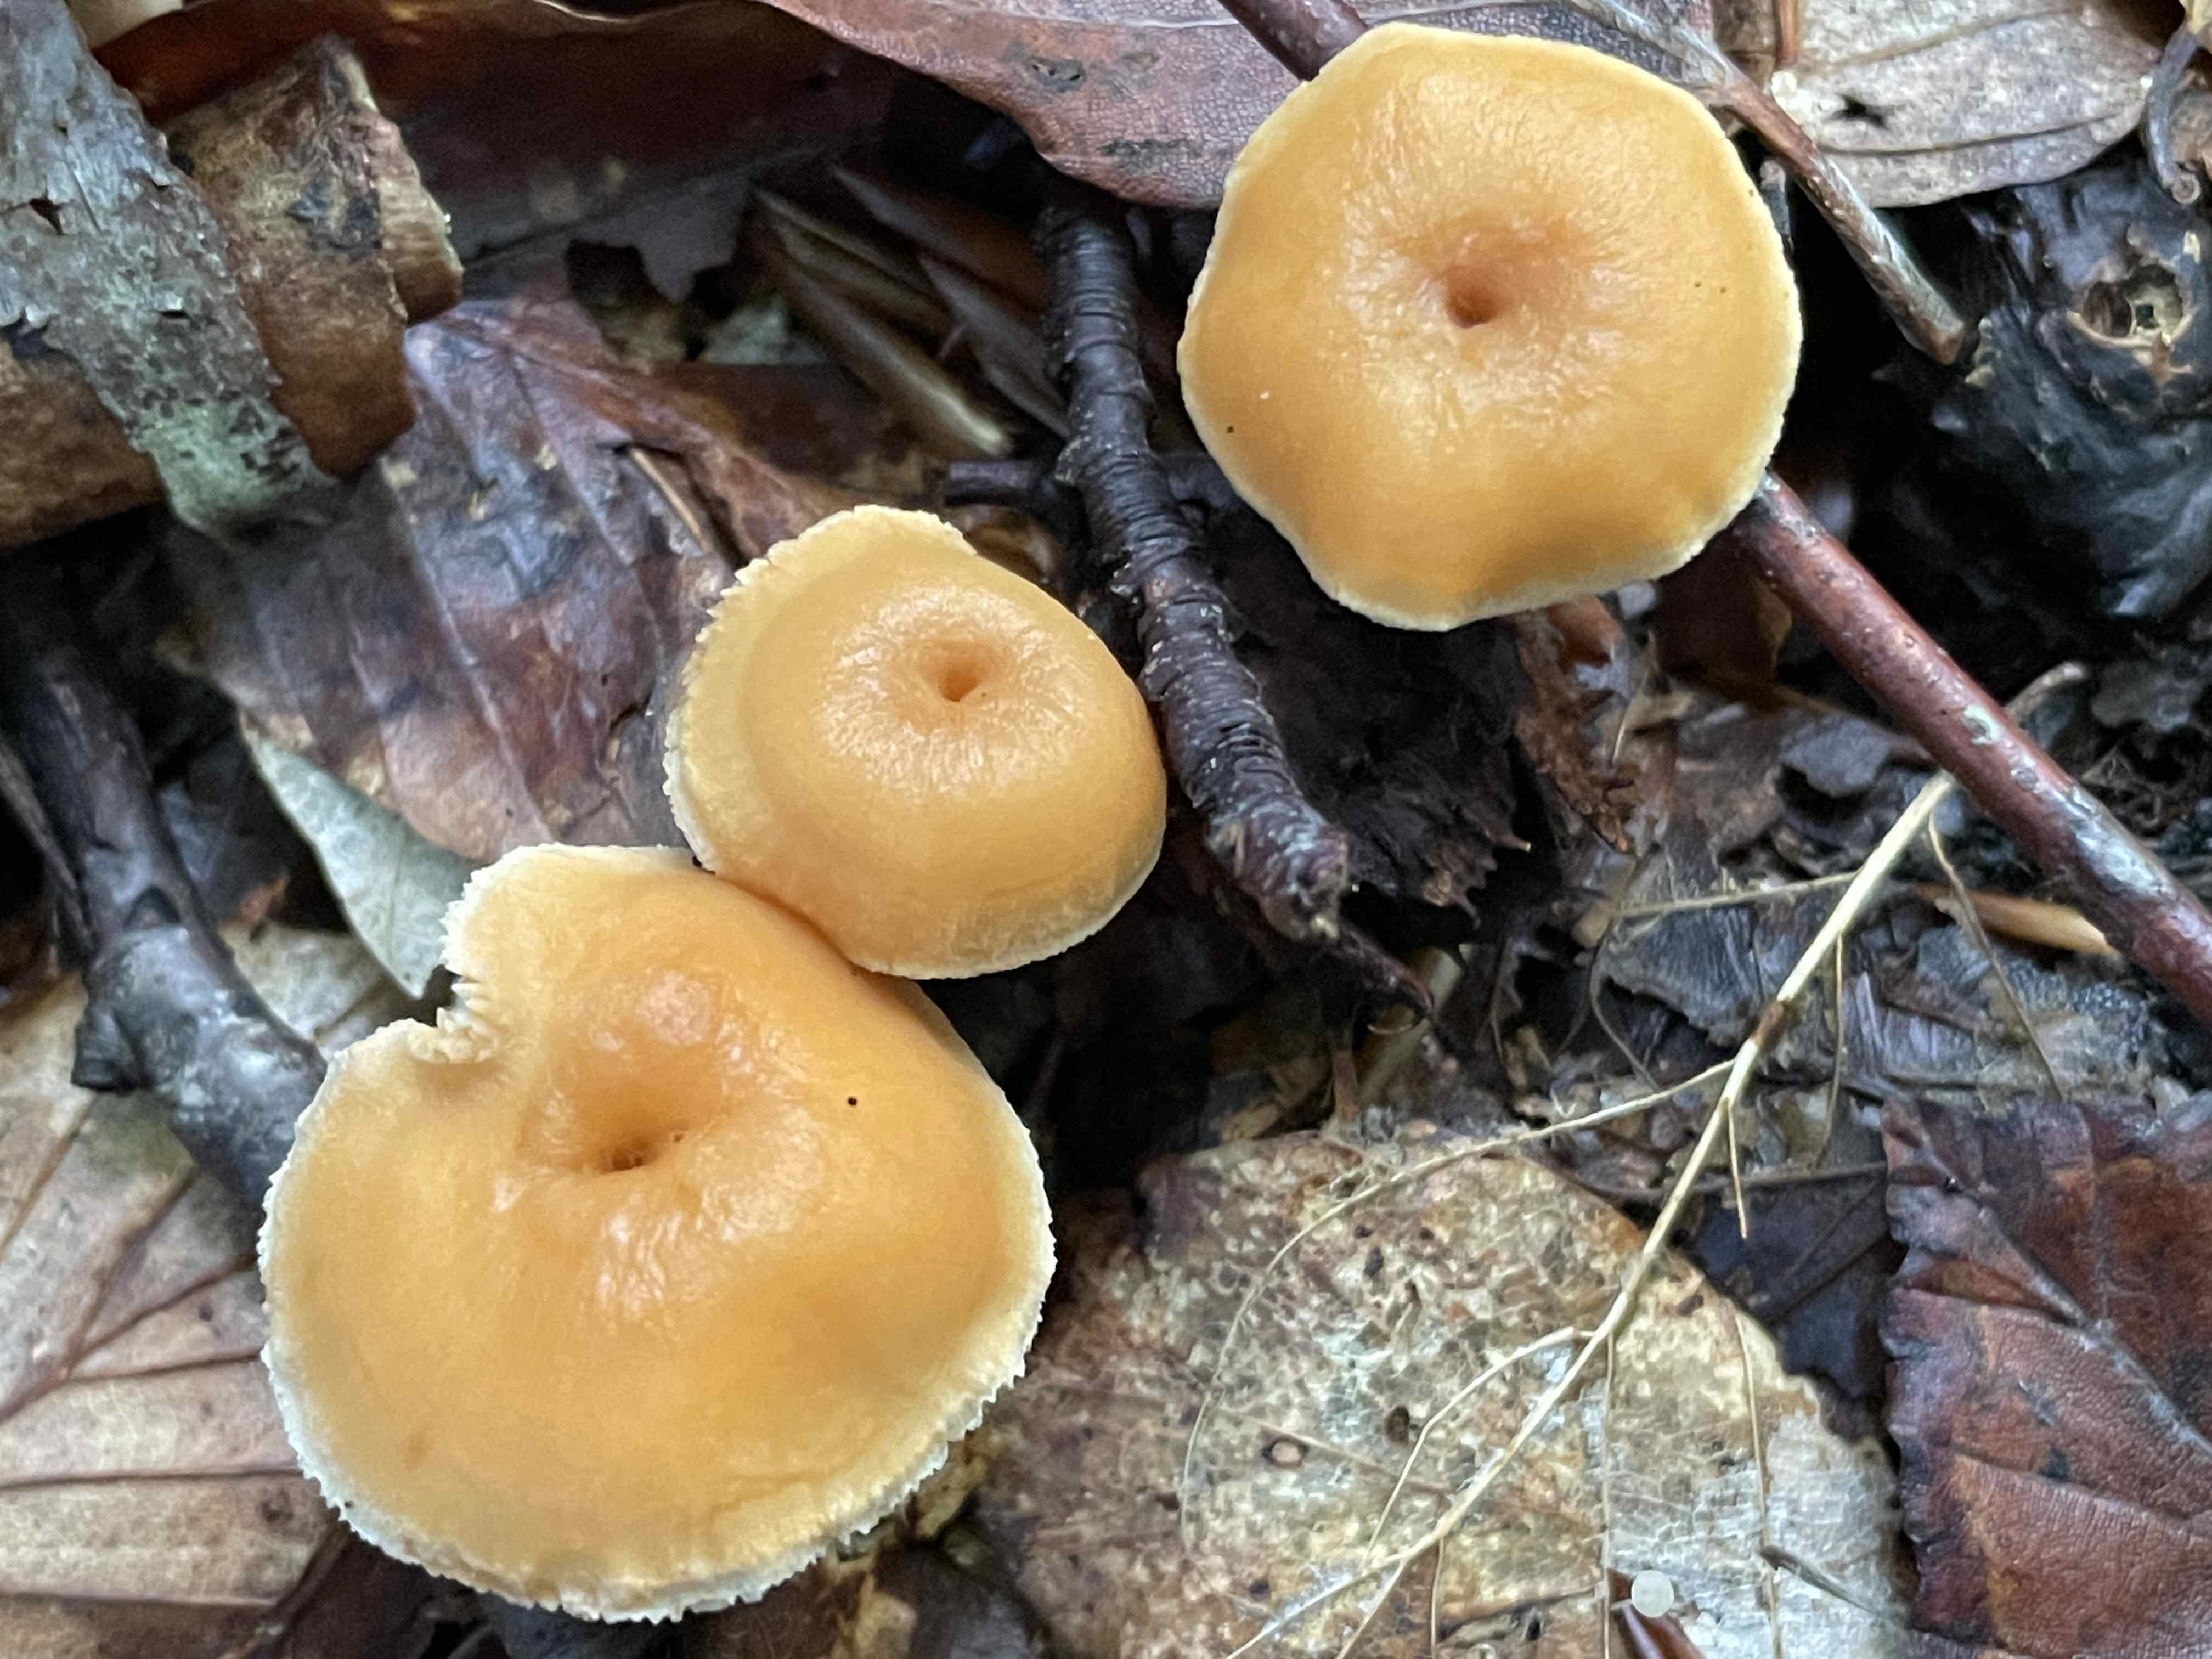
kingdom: Fungi
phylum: Basidiomycota
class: Agaricomycetes
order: Cantharellales
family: Hydnaceae
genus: Hydnum
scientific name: Hydnum umbilicatum
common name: navle-pigsvamp
